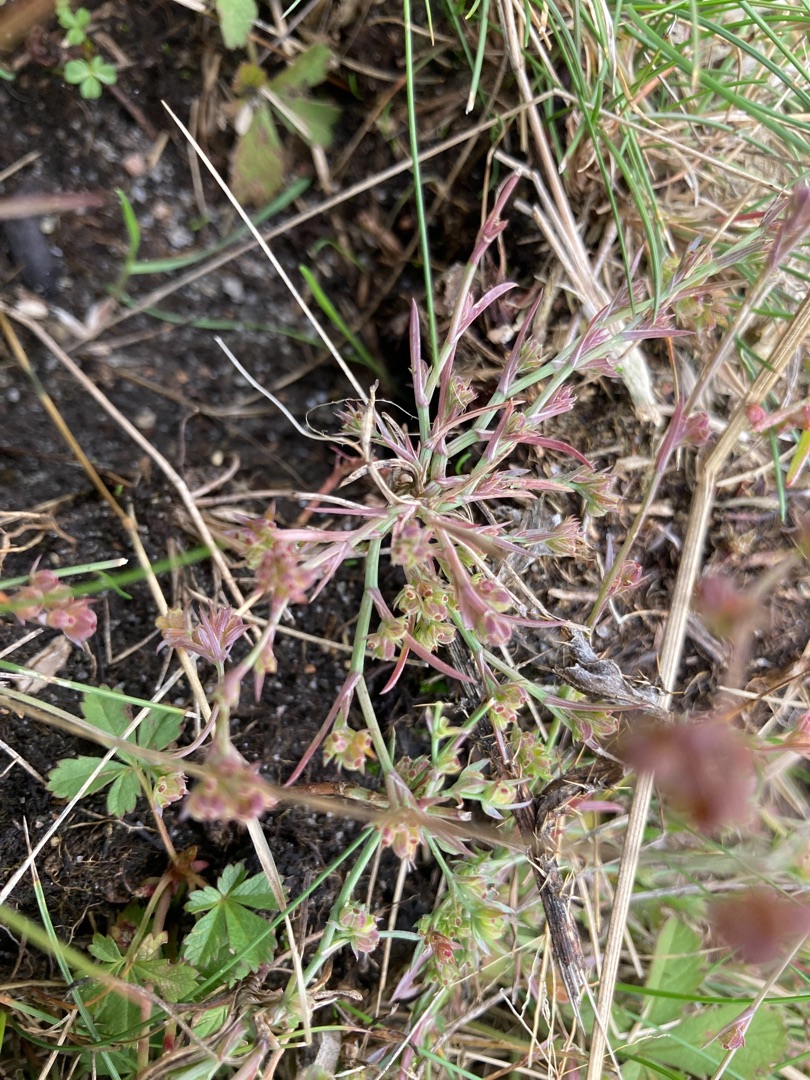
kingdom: Plantae
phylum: Tracheophyta
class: Magnoliopsida
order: Apiales
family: Apiaceae
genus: Bupleurum
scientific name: Bupleurum tenuissimum
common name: Smalbladet hareøre
